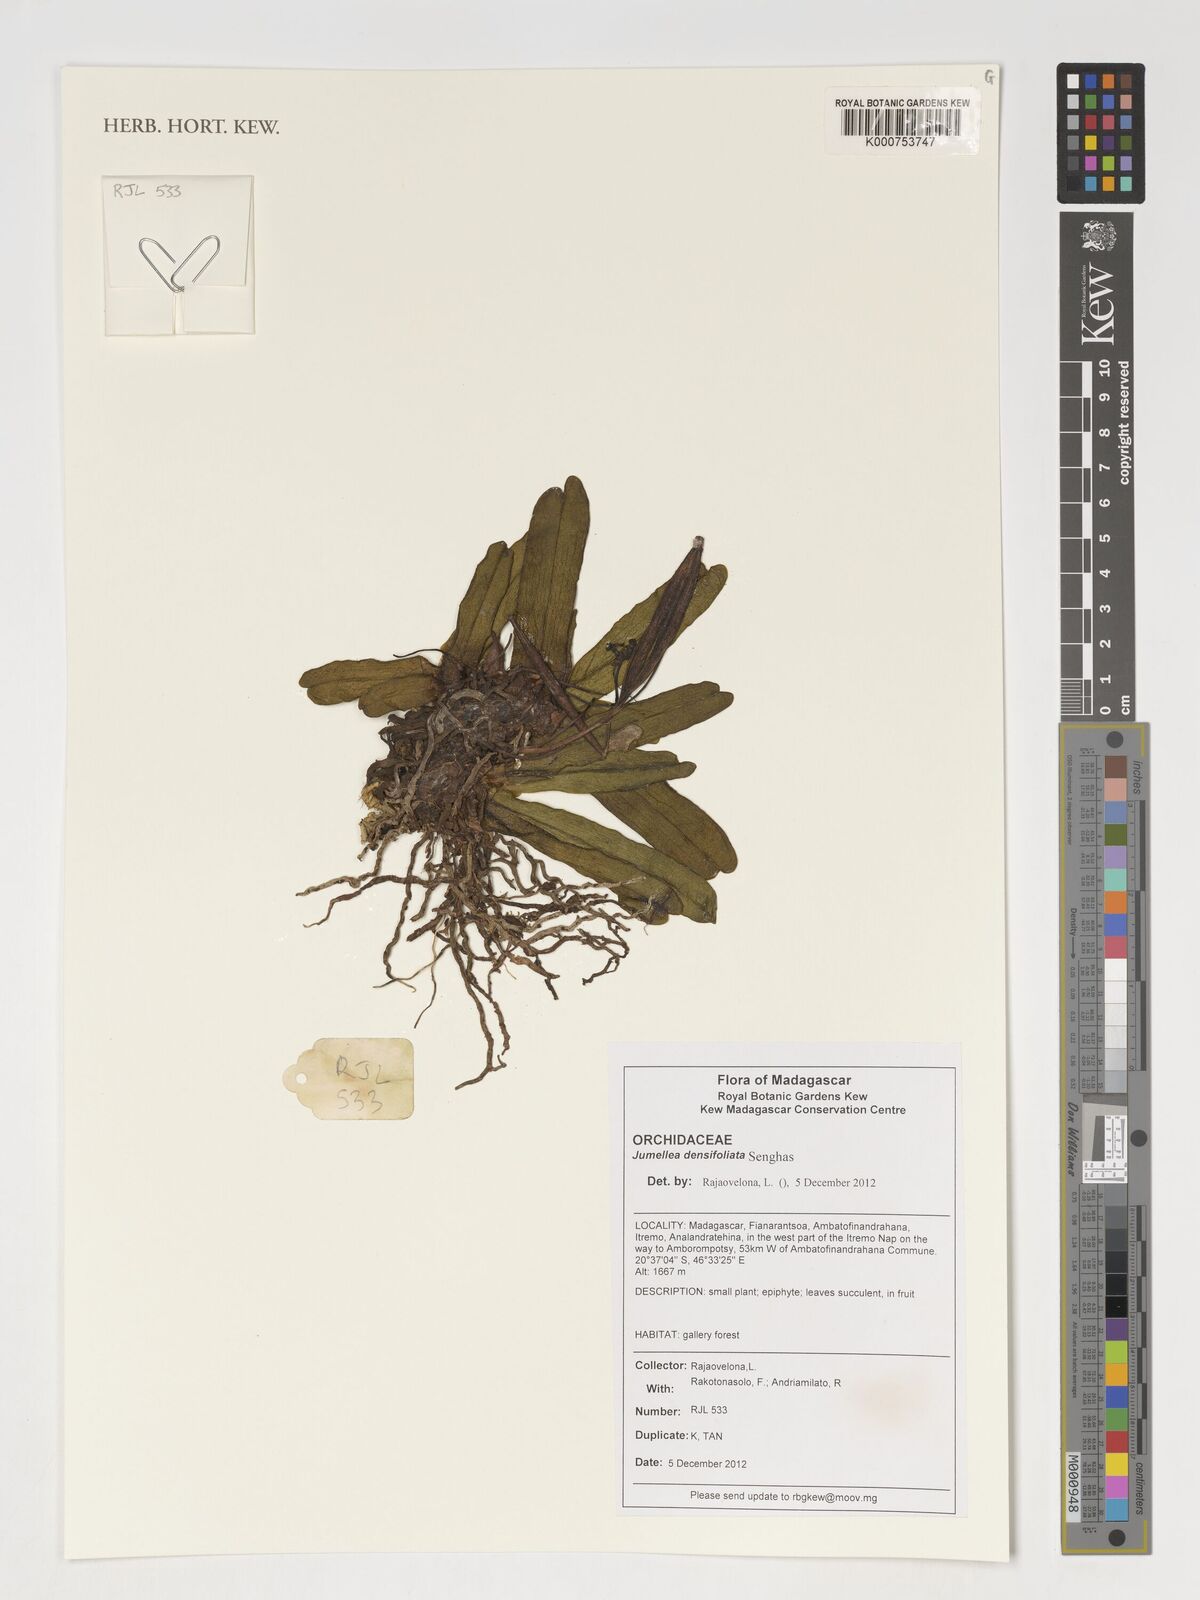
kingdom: Plantae
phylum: Tracheophyta
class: Liliopsida
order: Asparagales
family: Orchidaceae
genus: Jumellea
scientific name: Jumellea densefoliata
